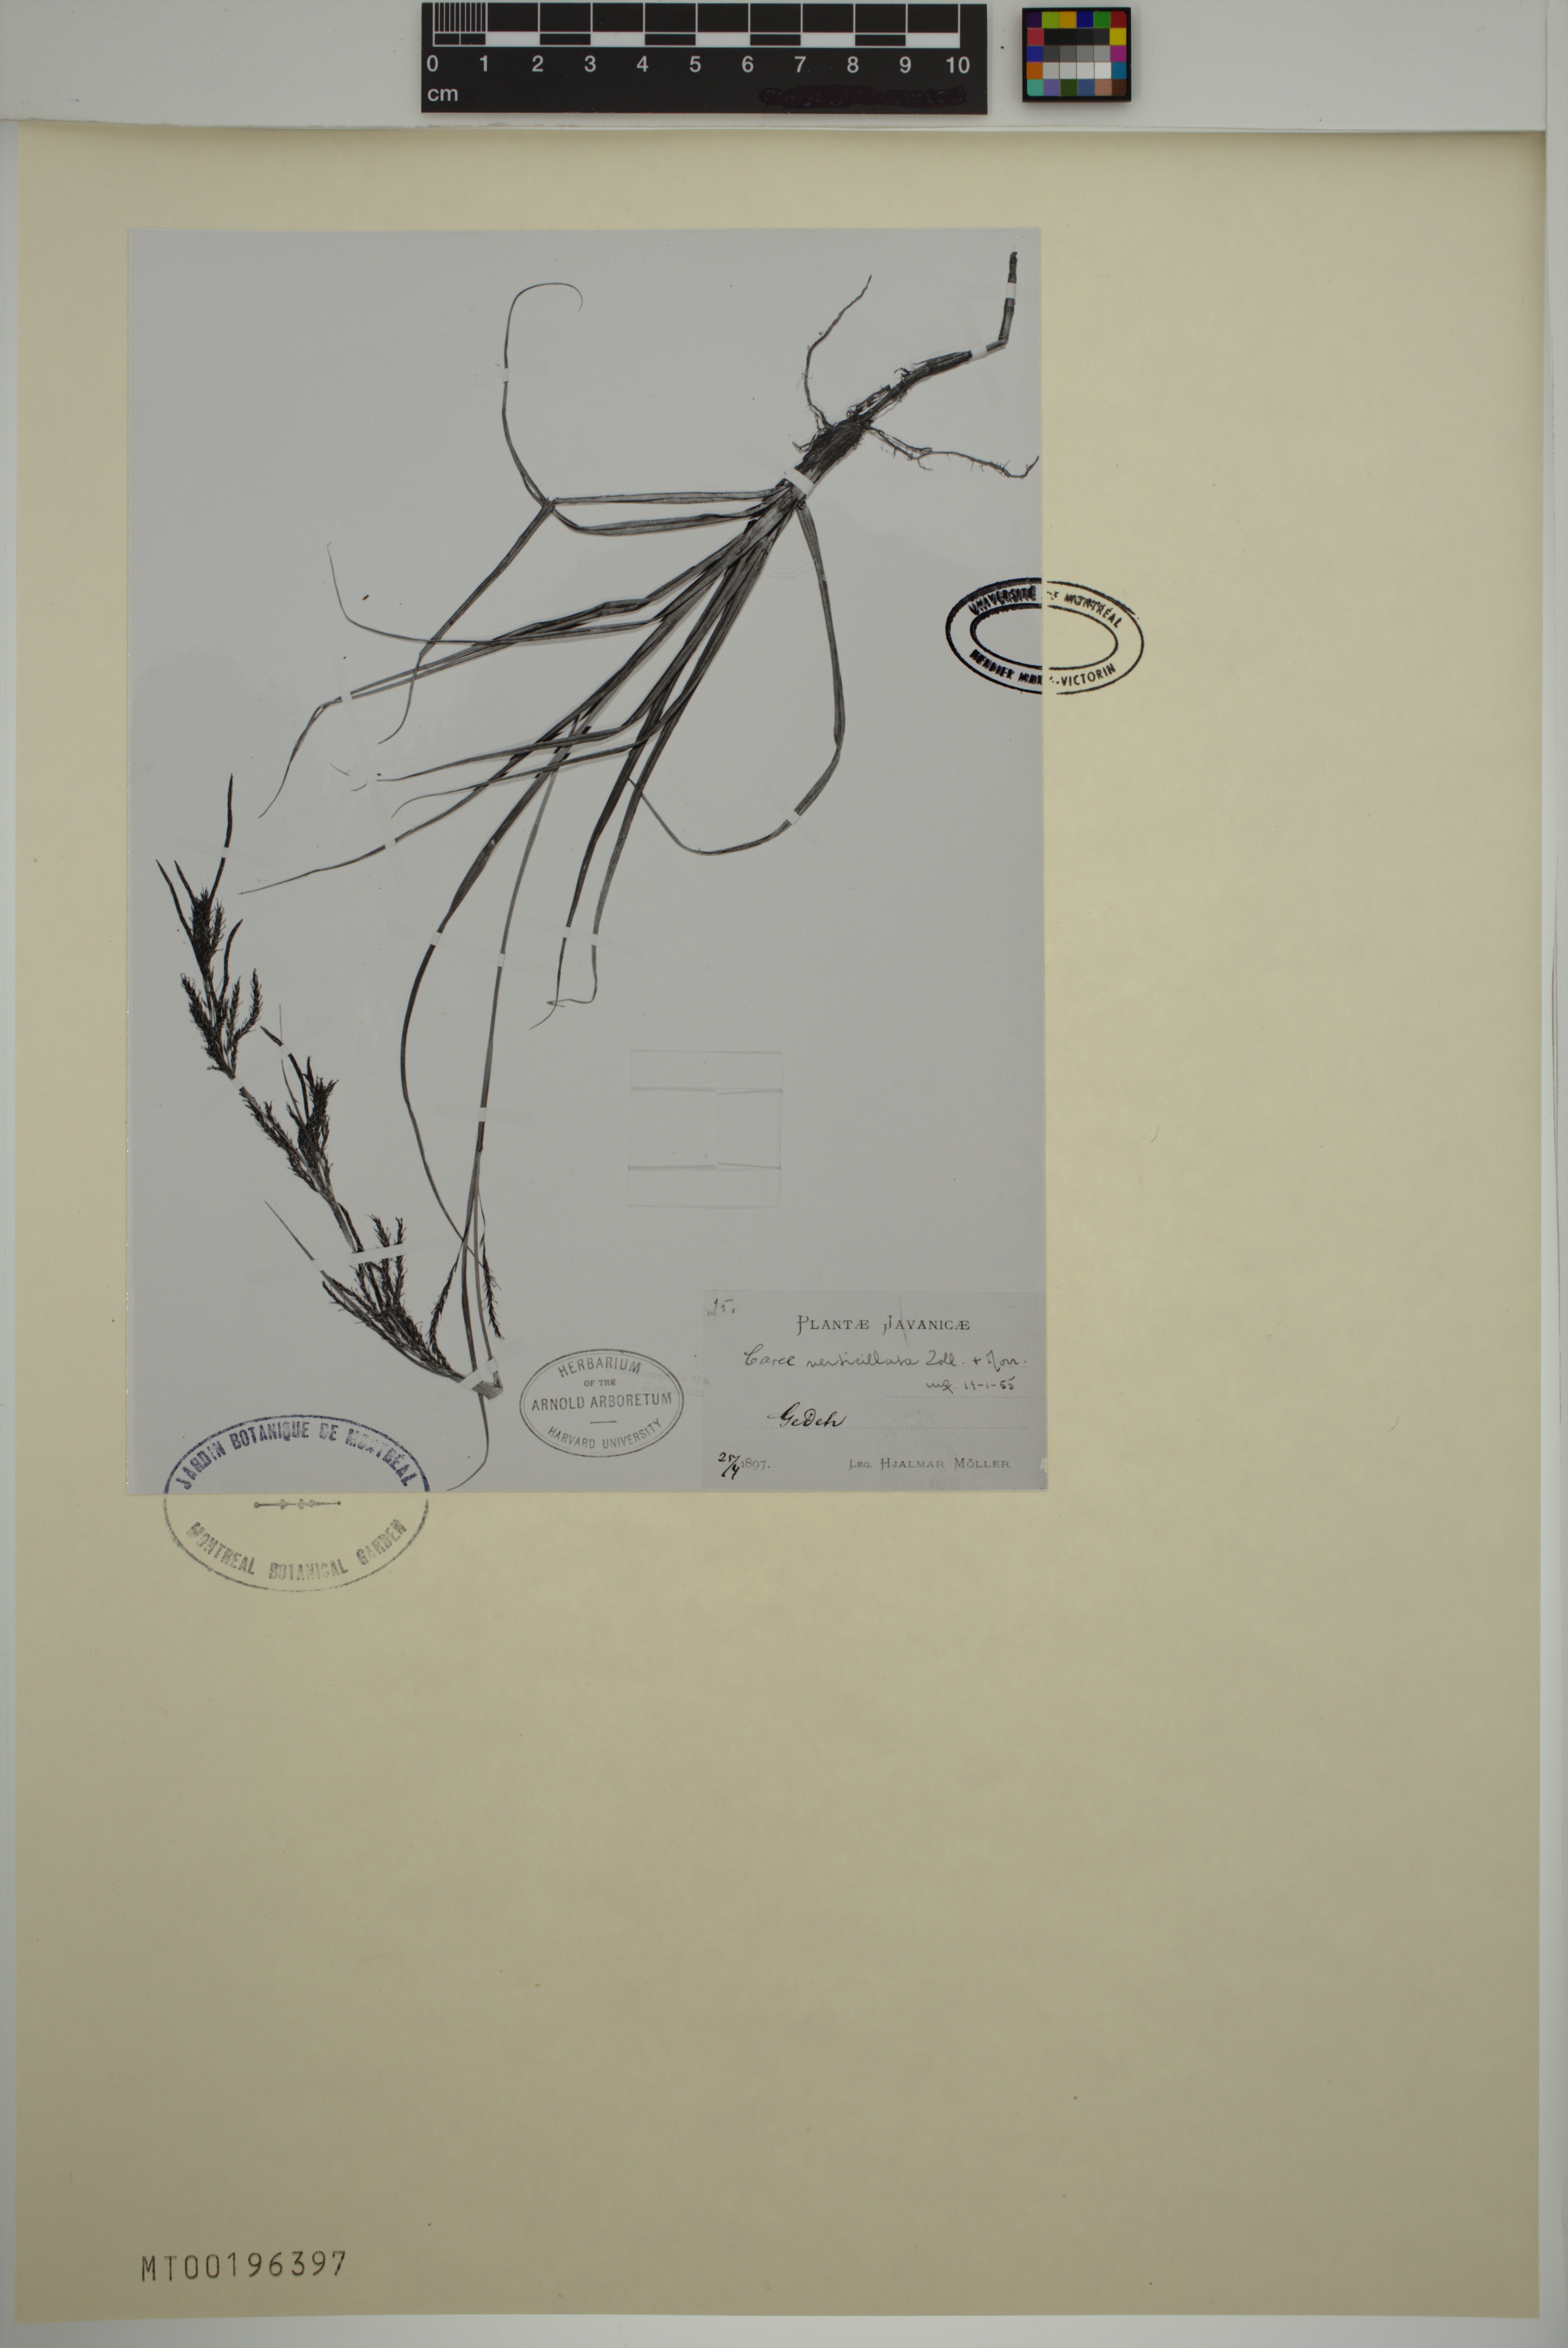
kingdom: Plantae
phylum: Tracheophyta
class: Liliopsida
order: Poales
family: Cyperaceae
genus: Carex
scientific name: Carex verticillata
